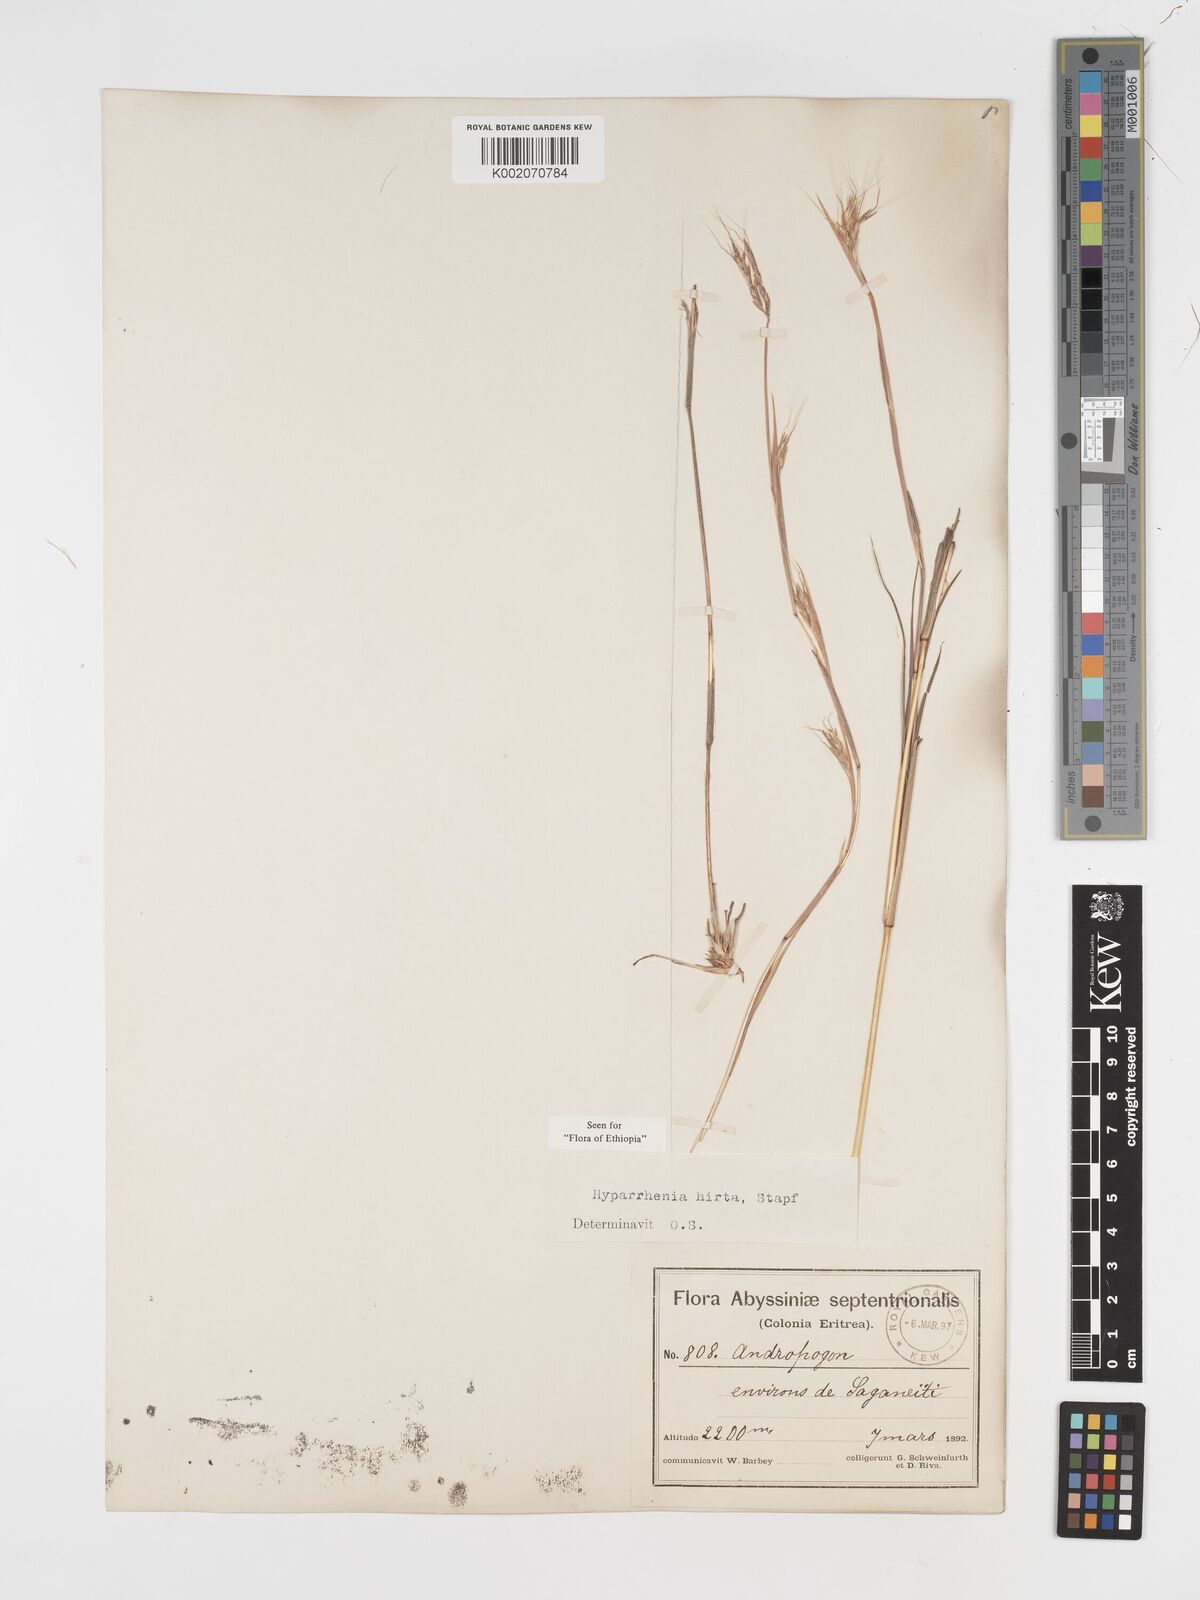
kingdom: Plantae
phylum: Tracheophyta
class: Liliopsida
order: Poales
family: Poaceae
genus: Hyparrhenia
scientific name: Hyparrhenia hirta
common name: Thatching grass
